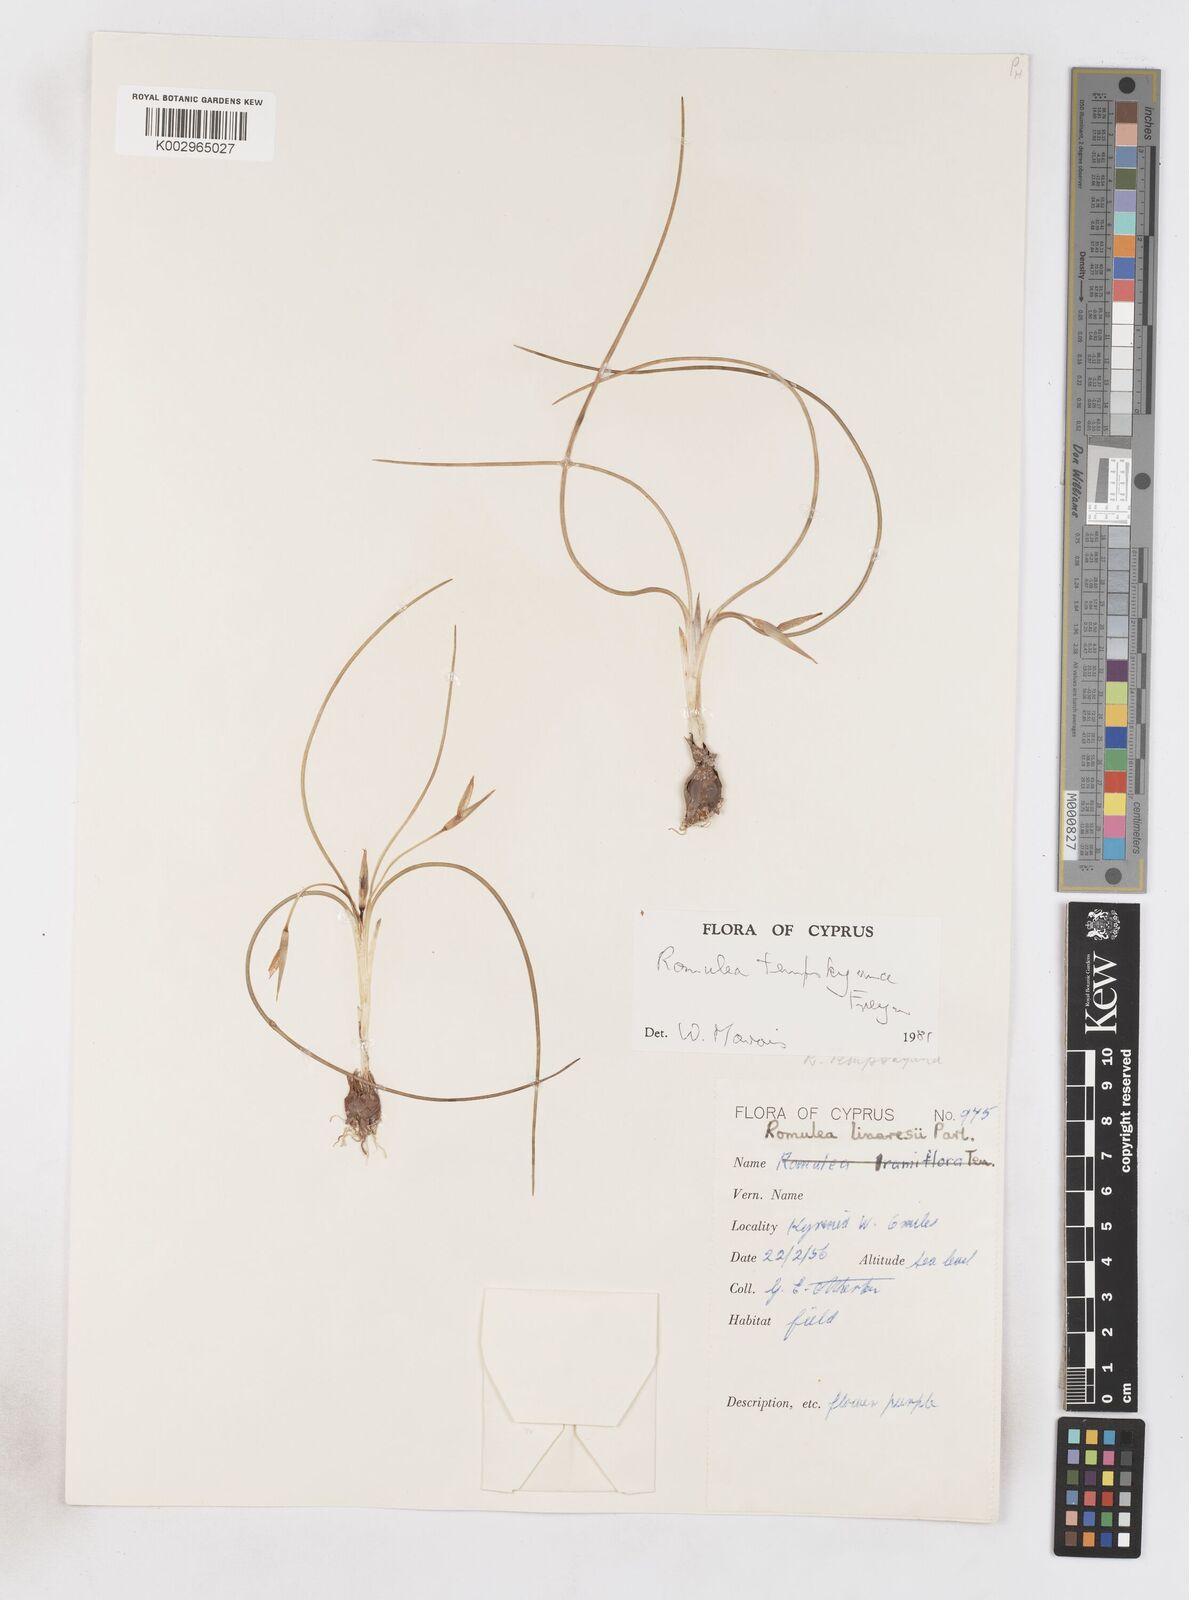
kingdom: Plantae
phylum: Tracheophyta
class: Liliopsida
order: Asparagales
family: Iridaceae
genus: Romulea
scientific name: Romulea tempskyana
